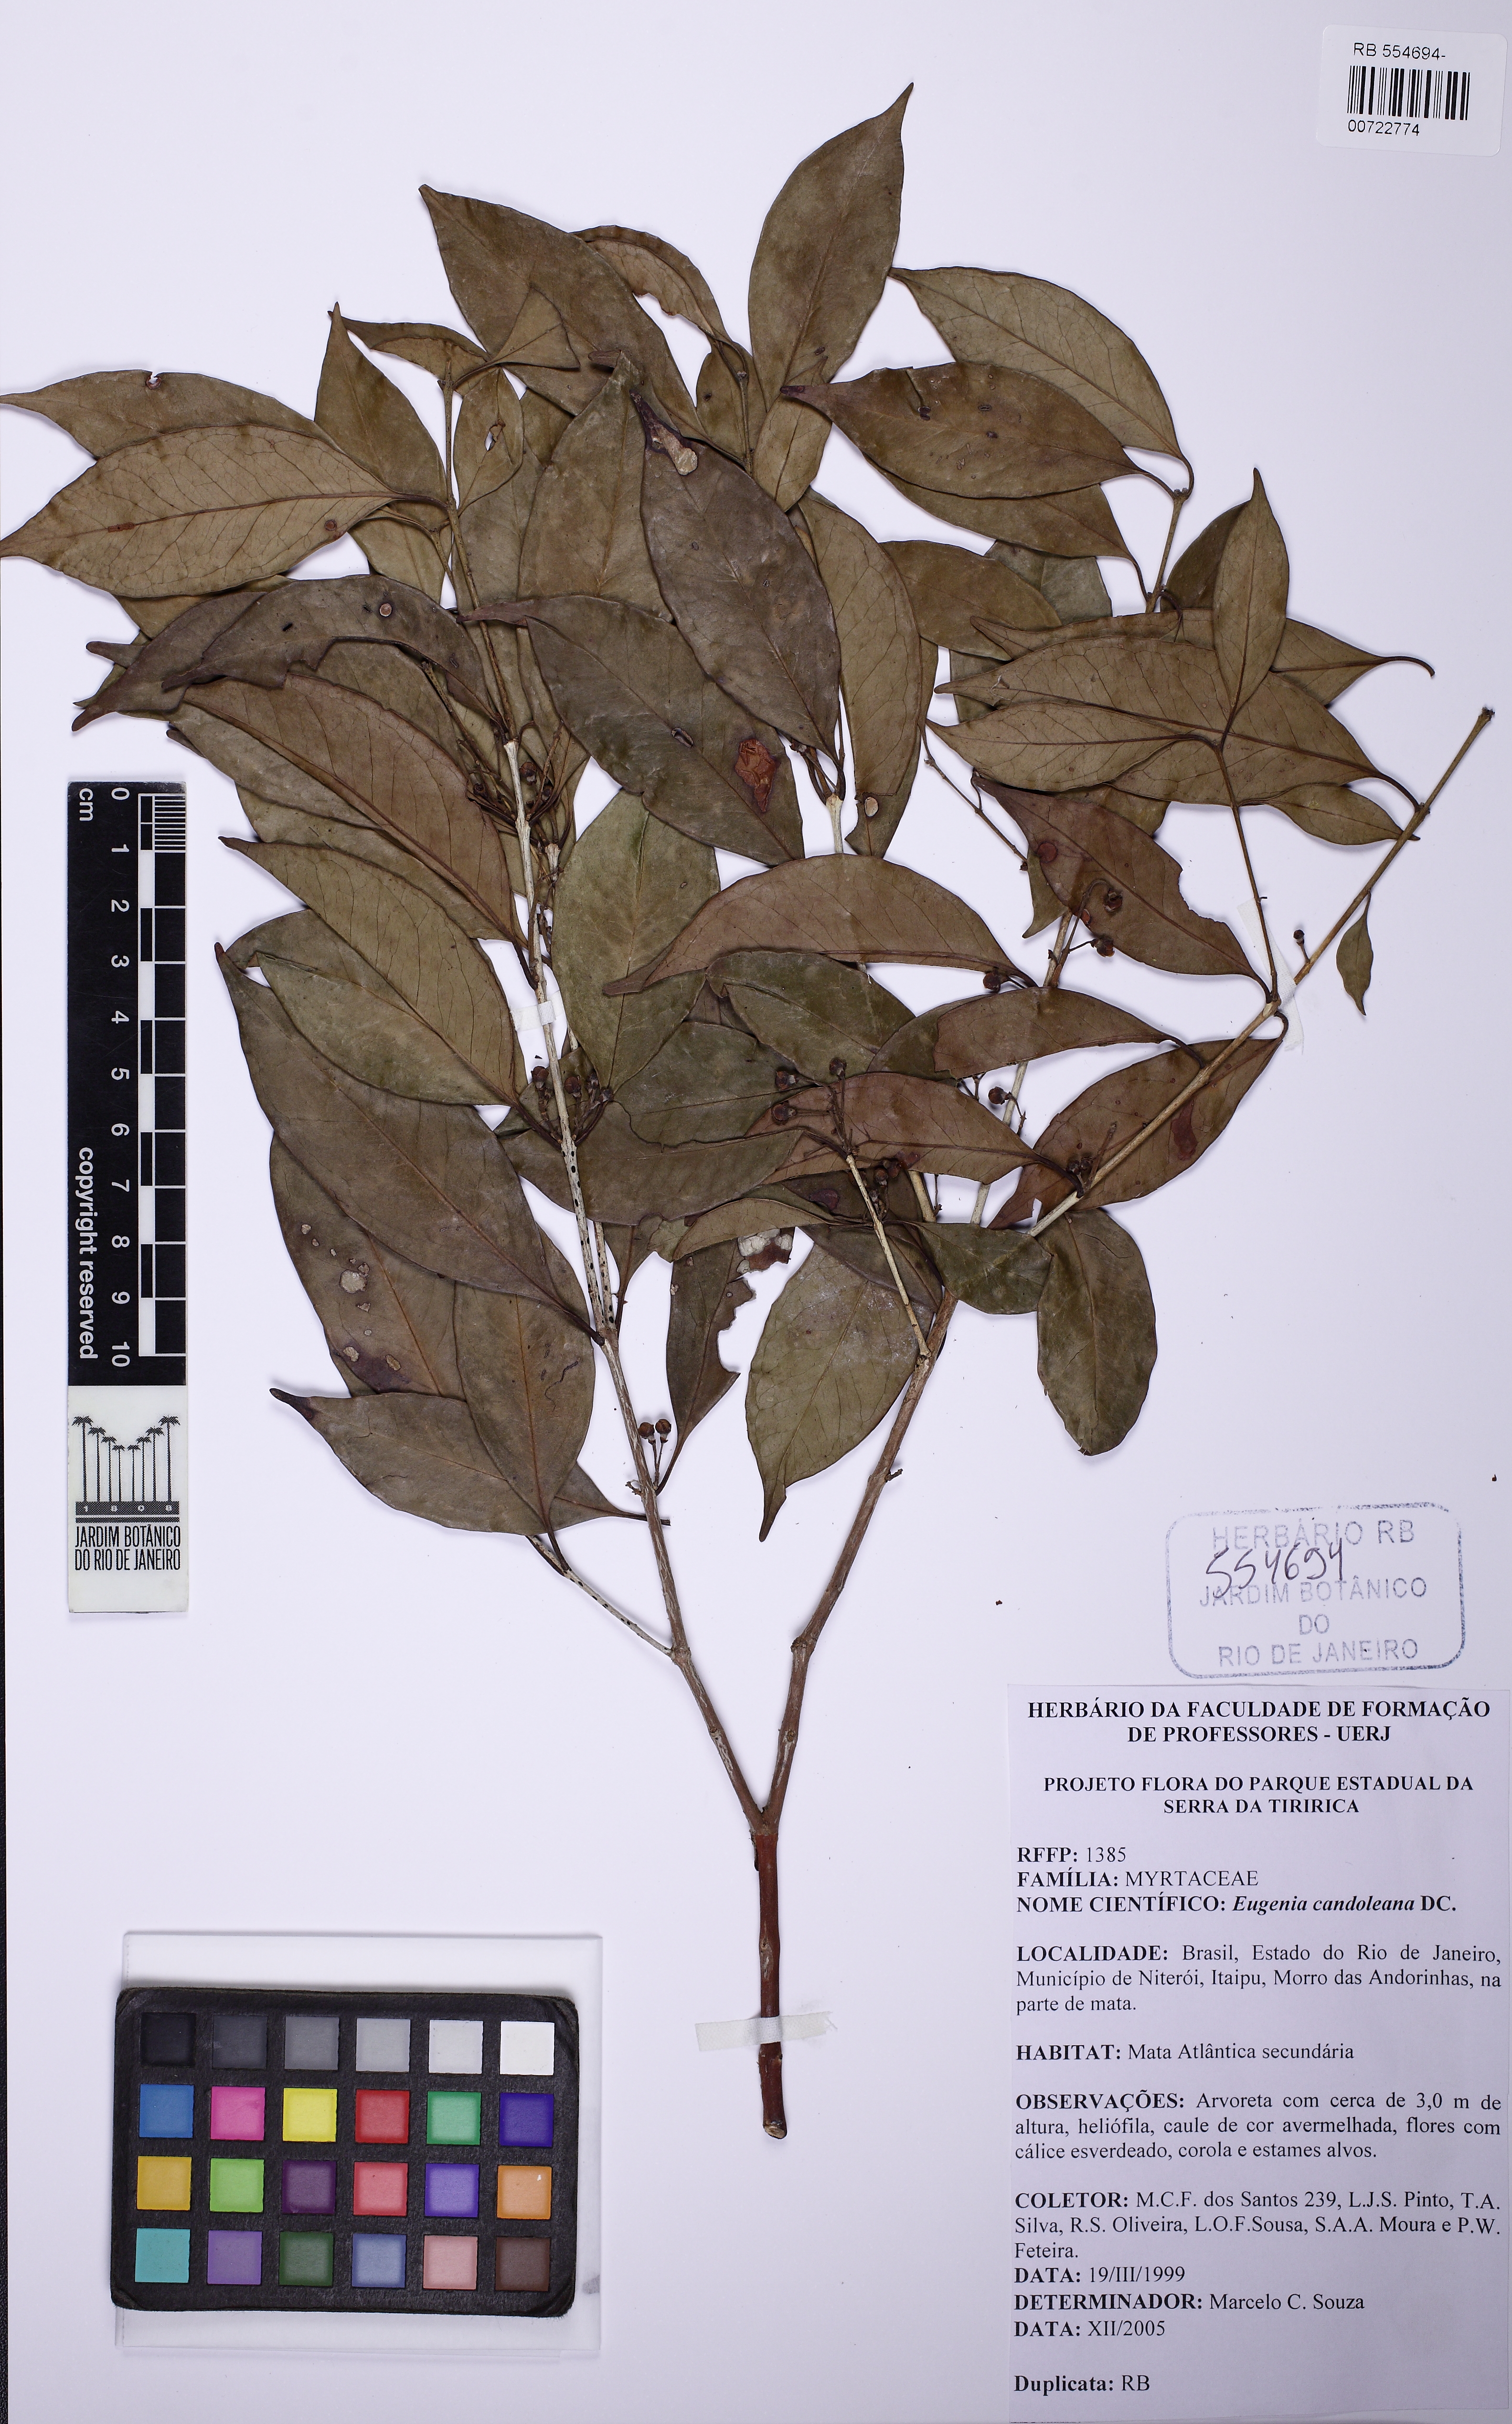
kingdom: Plantae
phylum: Tracheophyta
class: Magnoliopsida
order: Myrtales
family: Myrtaceae
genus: Eugenia
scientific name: Eugenia candolleana
